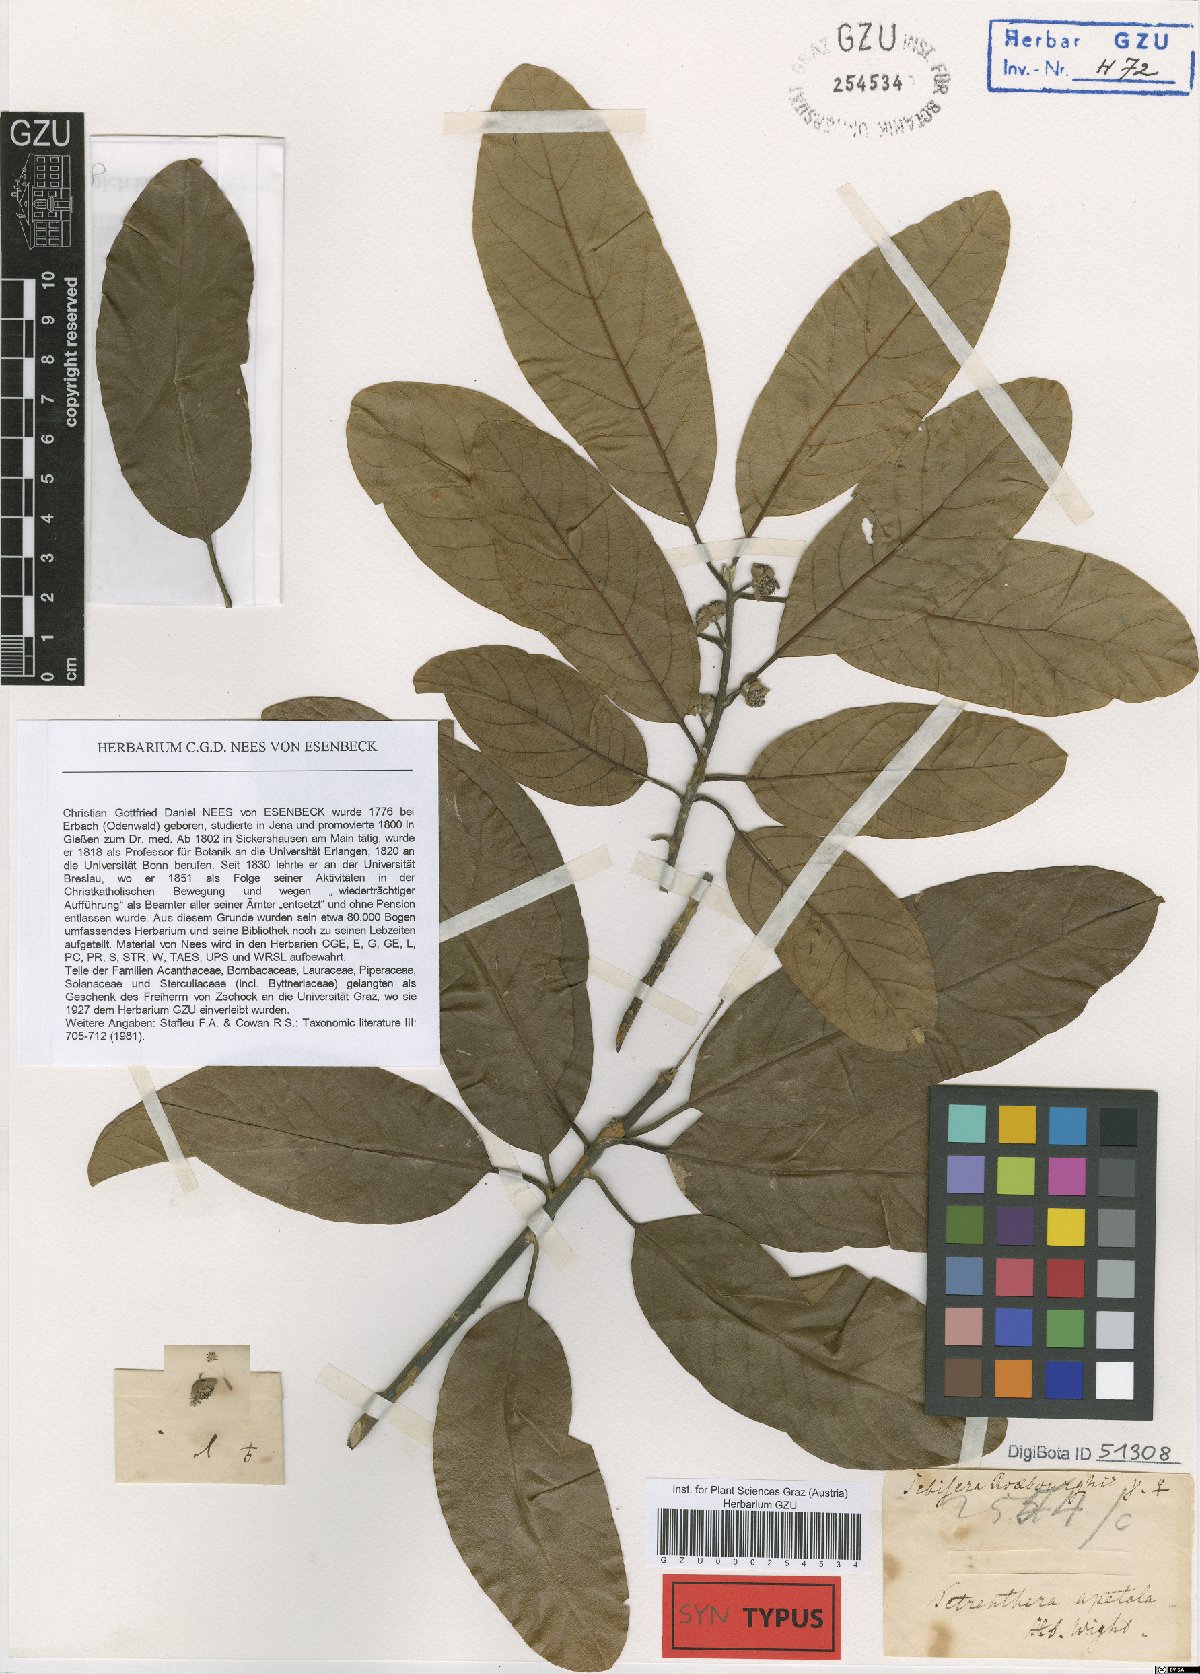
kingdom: Plantae
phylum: Tracheophyta
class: Magnoliopsida
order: Laurales
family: Lauraceae
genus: Litsea
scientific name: Litsea glutinosa
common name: Indian-laurel
